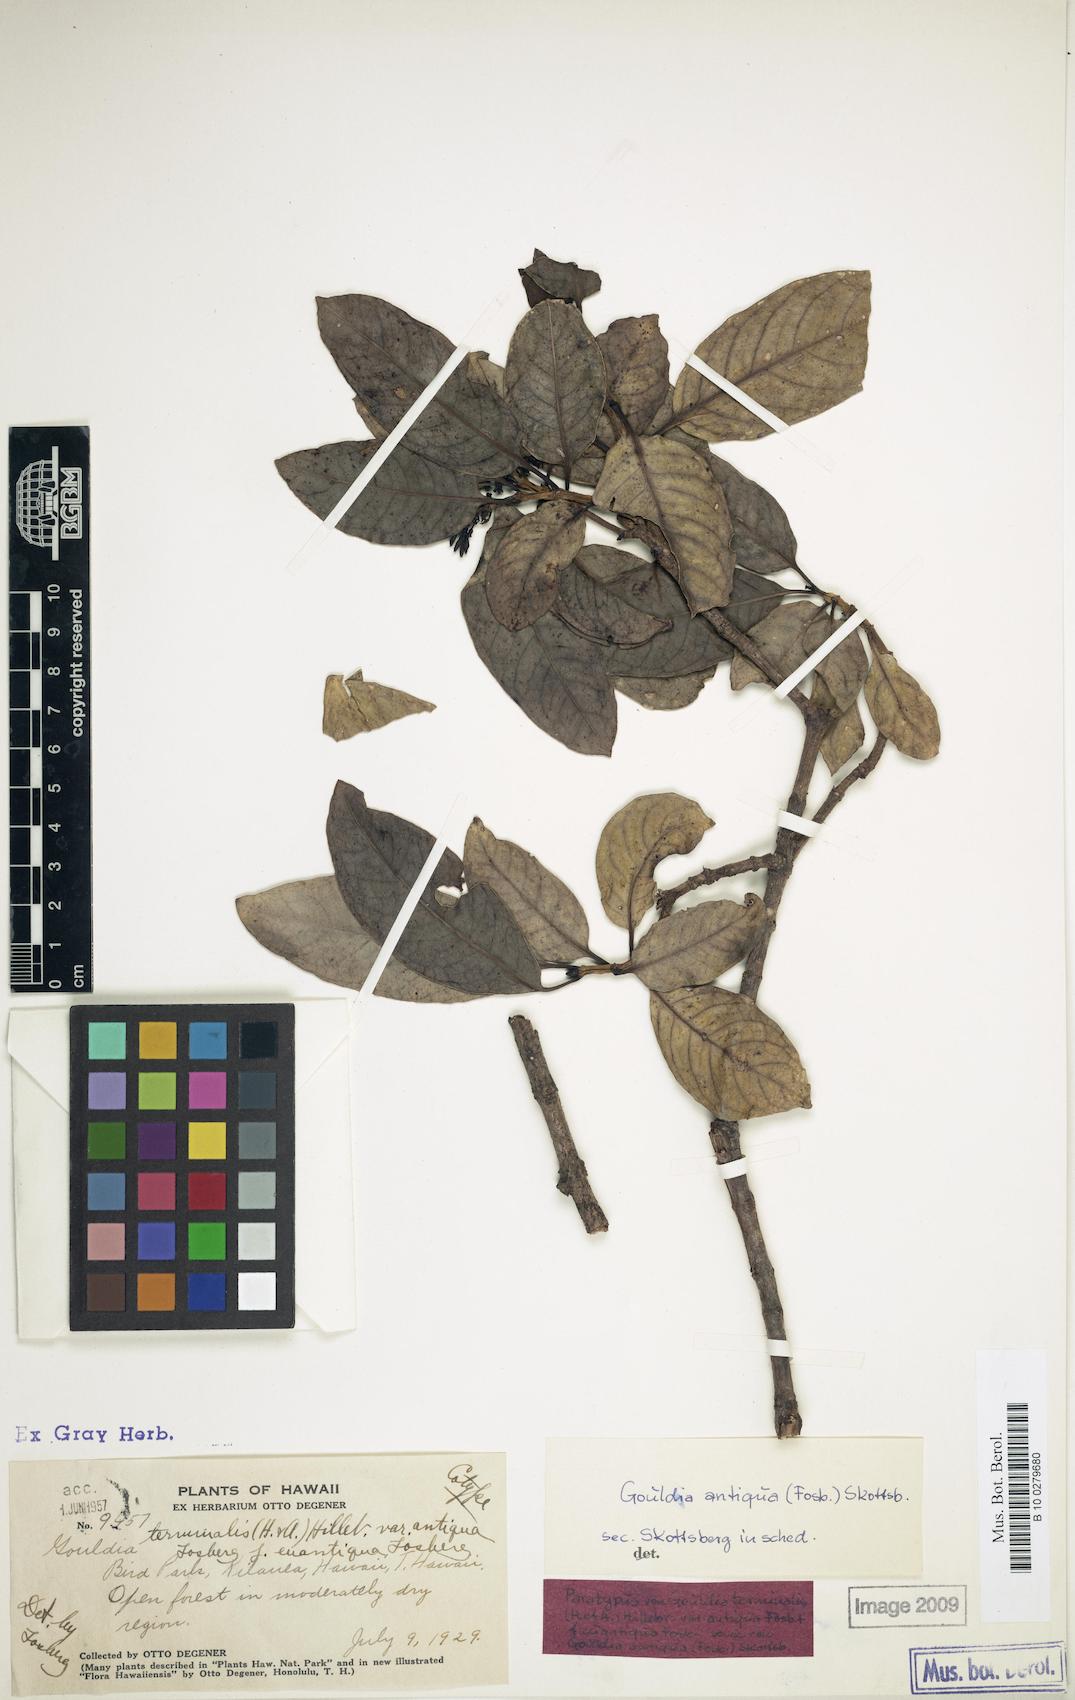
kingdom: Plantae
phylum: Tracheophyta
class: Magnoliopsida
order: Gentianales
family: Rubiaceae
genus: Kadua
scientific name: Kadua affinis
